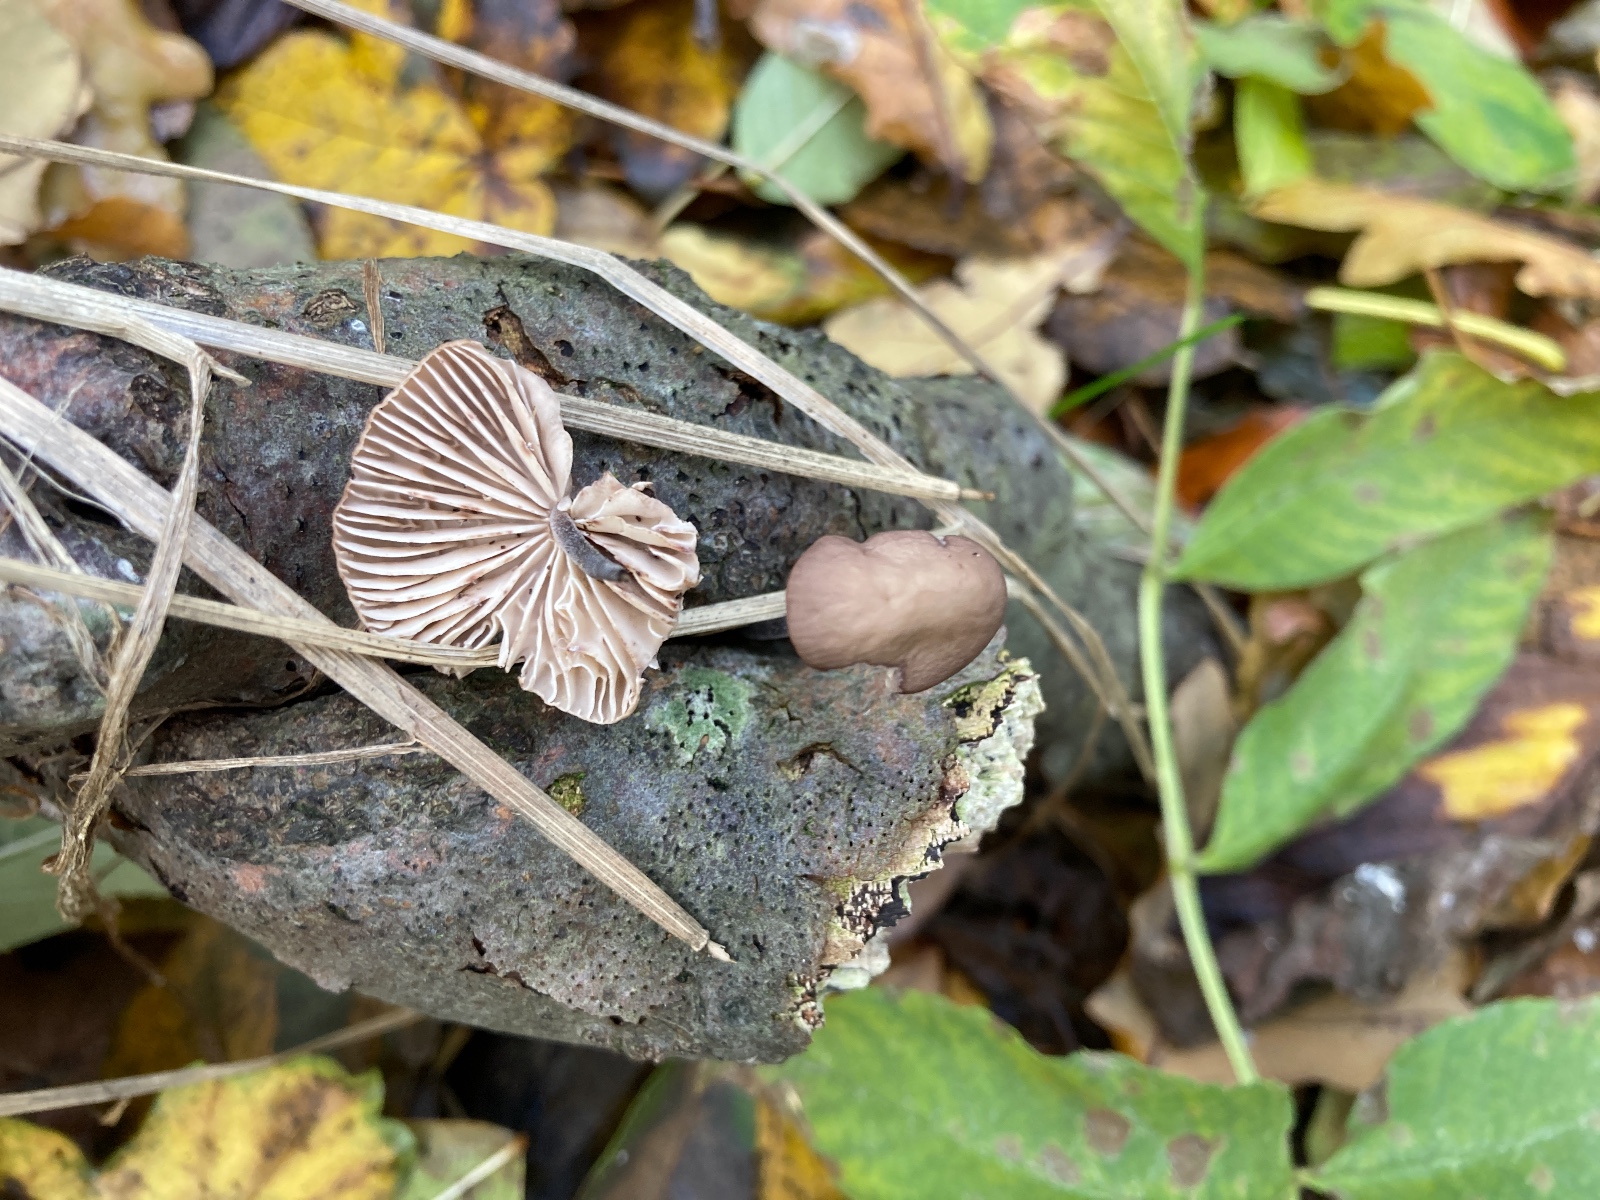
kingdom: Fungi
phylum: Basidiomycota
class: Agaricomycetes
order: Agaricales
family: Omphalotaceae
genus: Mycetinis
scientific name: Mycetinis alliaceus
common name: stor løghat
